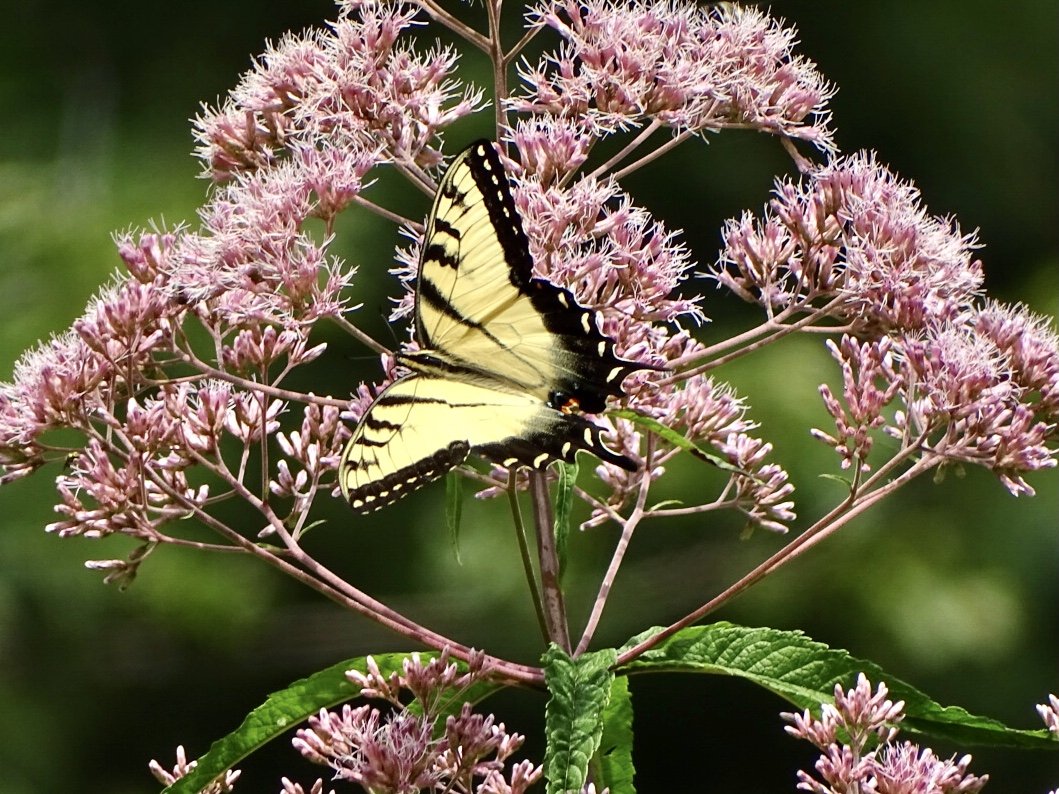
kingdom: Animalia
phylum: Arthropoda
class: Insecta
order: Lepidoptera
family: Papilionidae
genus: Pterourus
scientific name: Pterourus glaucus
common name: Eastern Tiger Swallowtail
